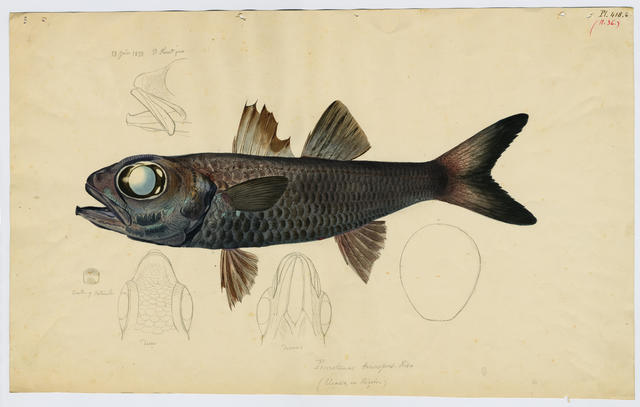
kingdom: Animalia
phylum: Chordata
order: Perciformes
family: Epigonidae
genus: Epigonus
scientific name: Epigonus telescopus
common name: Bulls-eye
